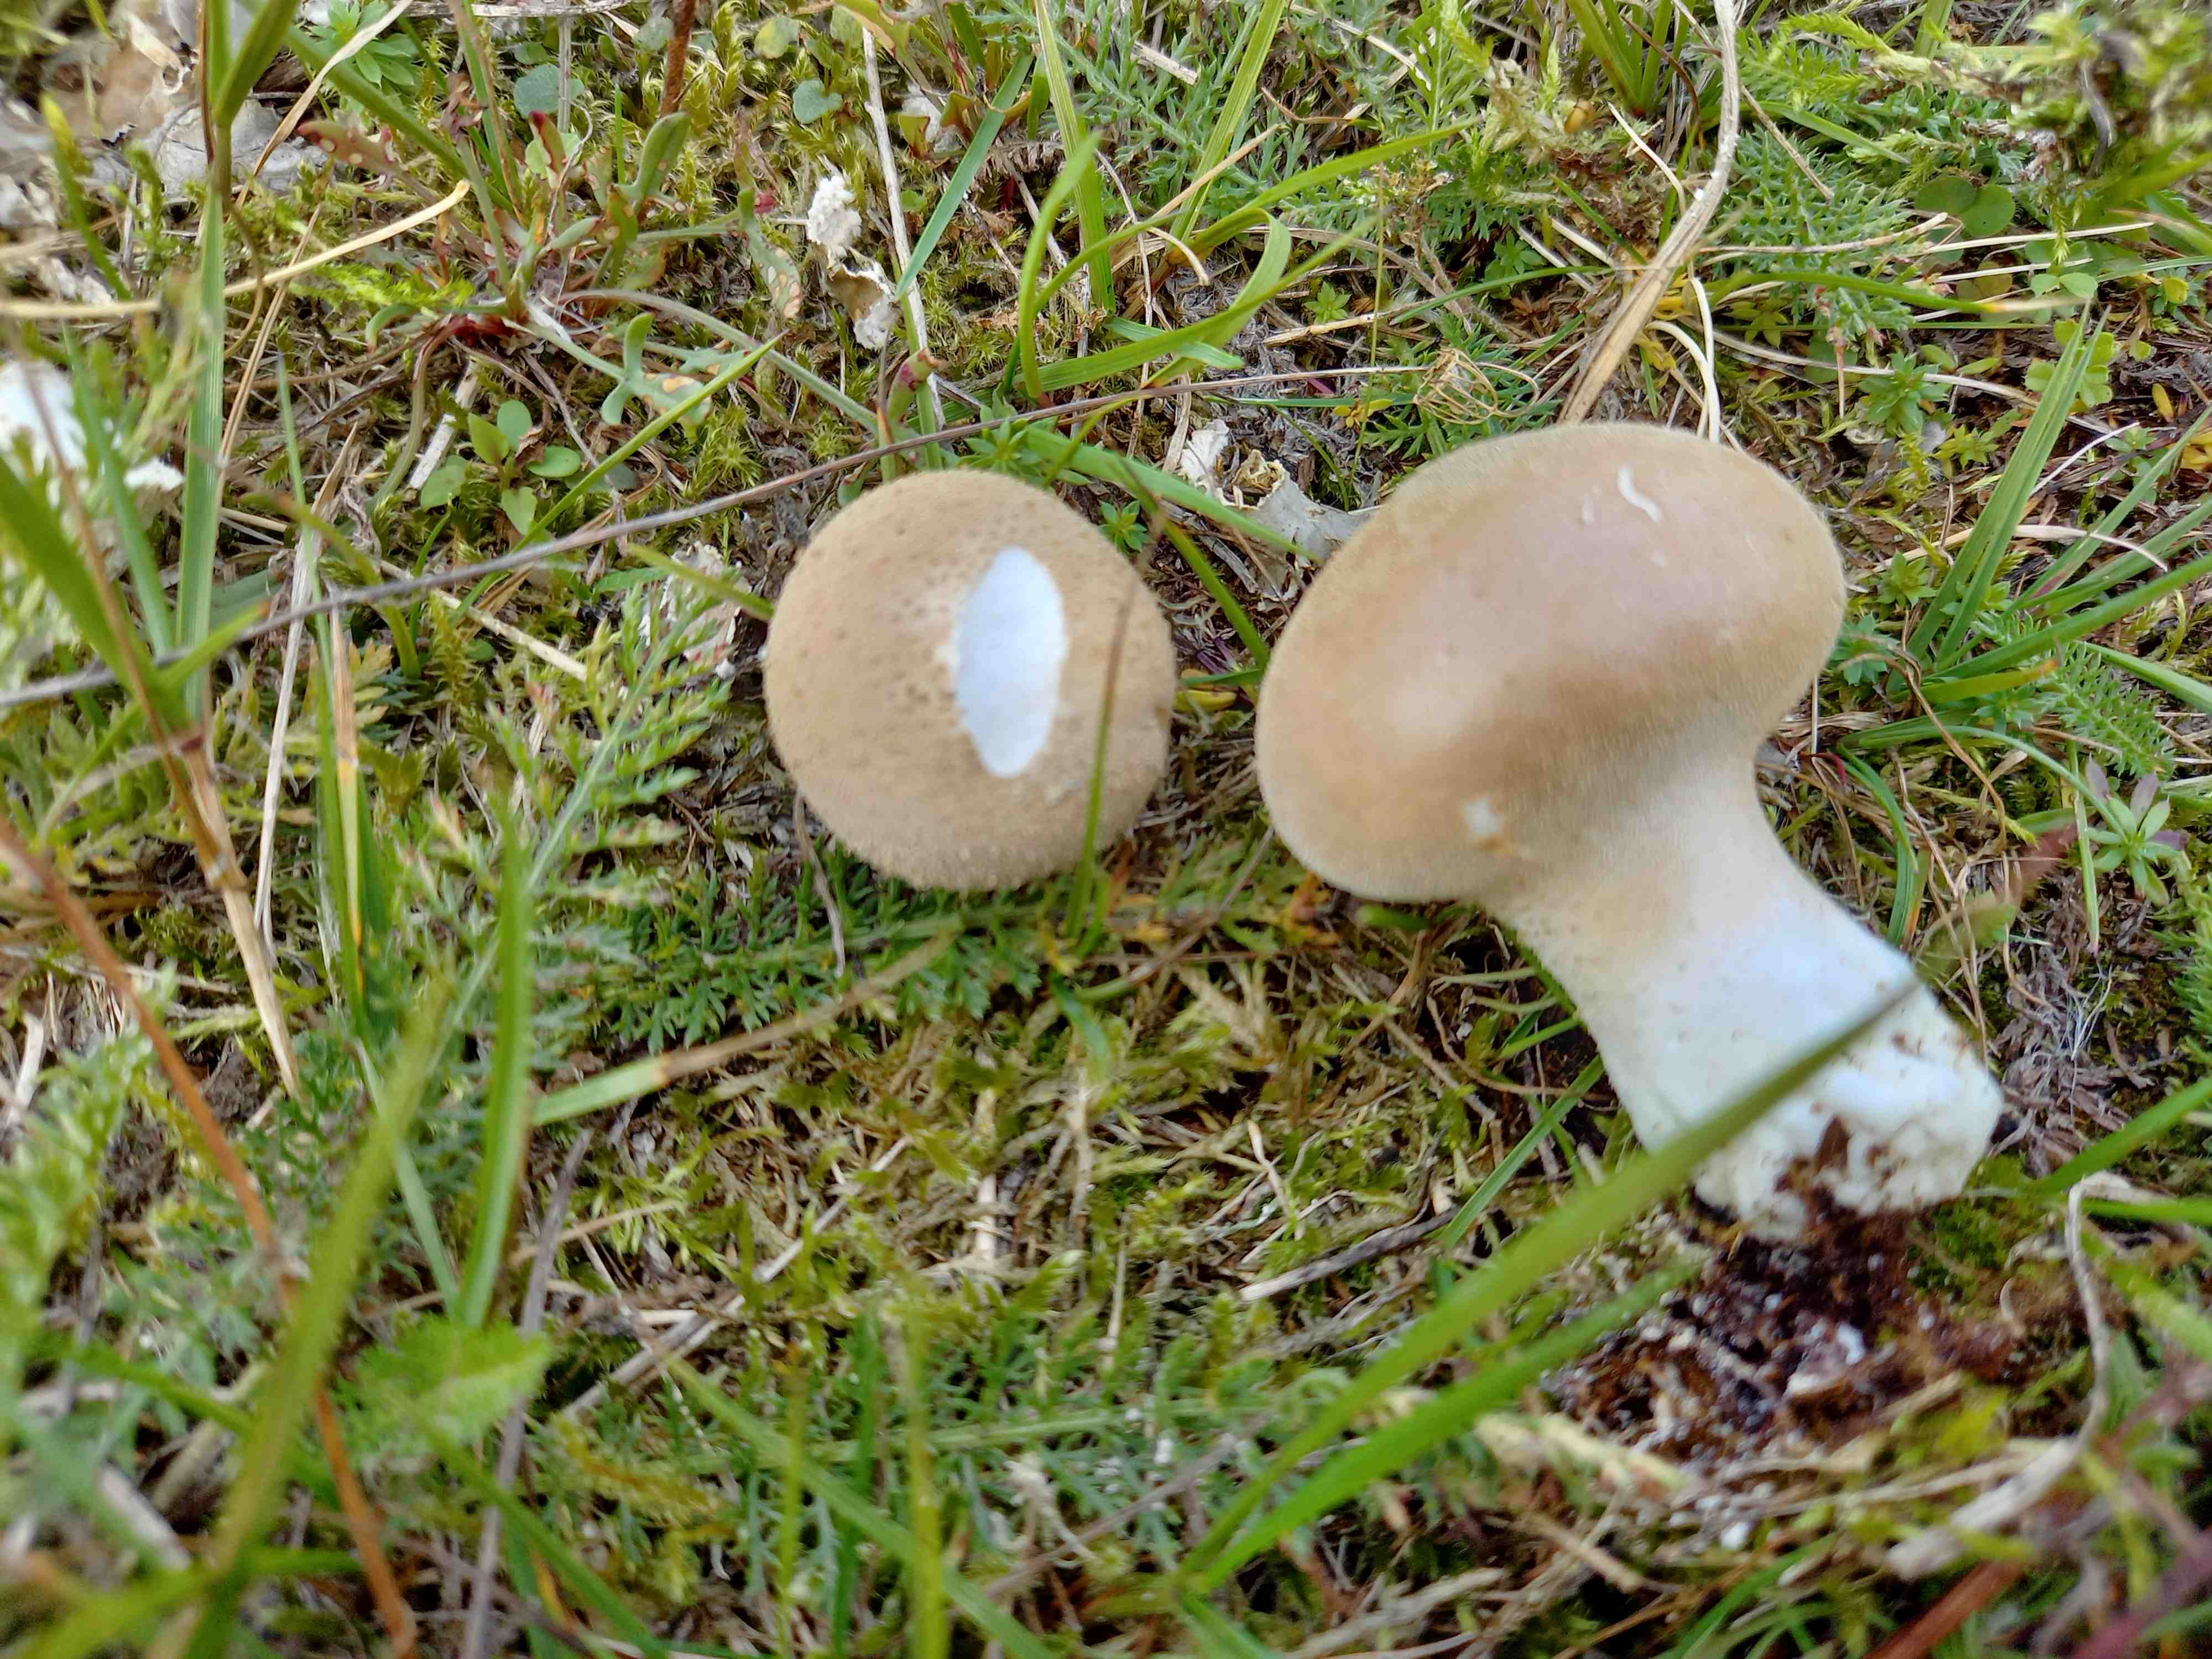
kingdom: Fungi
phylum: Basidiomycota
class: Agaricomycetes
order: Agaricales
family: Lycoperdaceae
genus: Lycoperdon
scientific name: Lycoperdon lividum
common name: mark-støvbold
